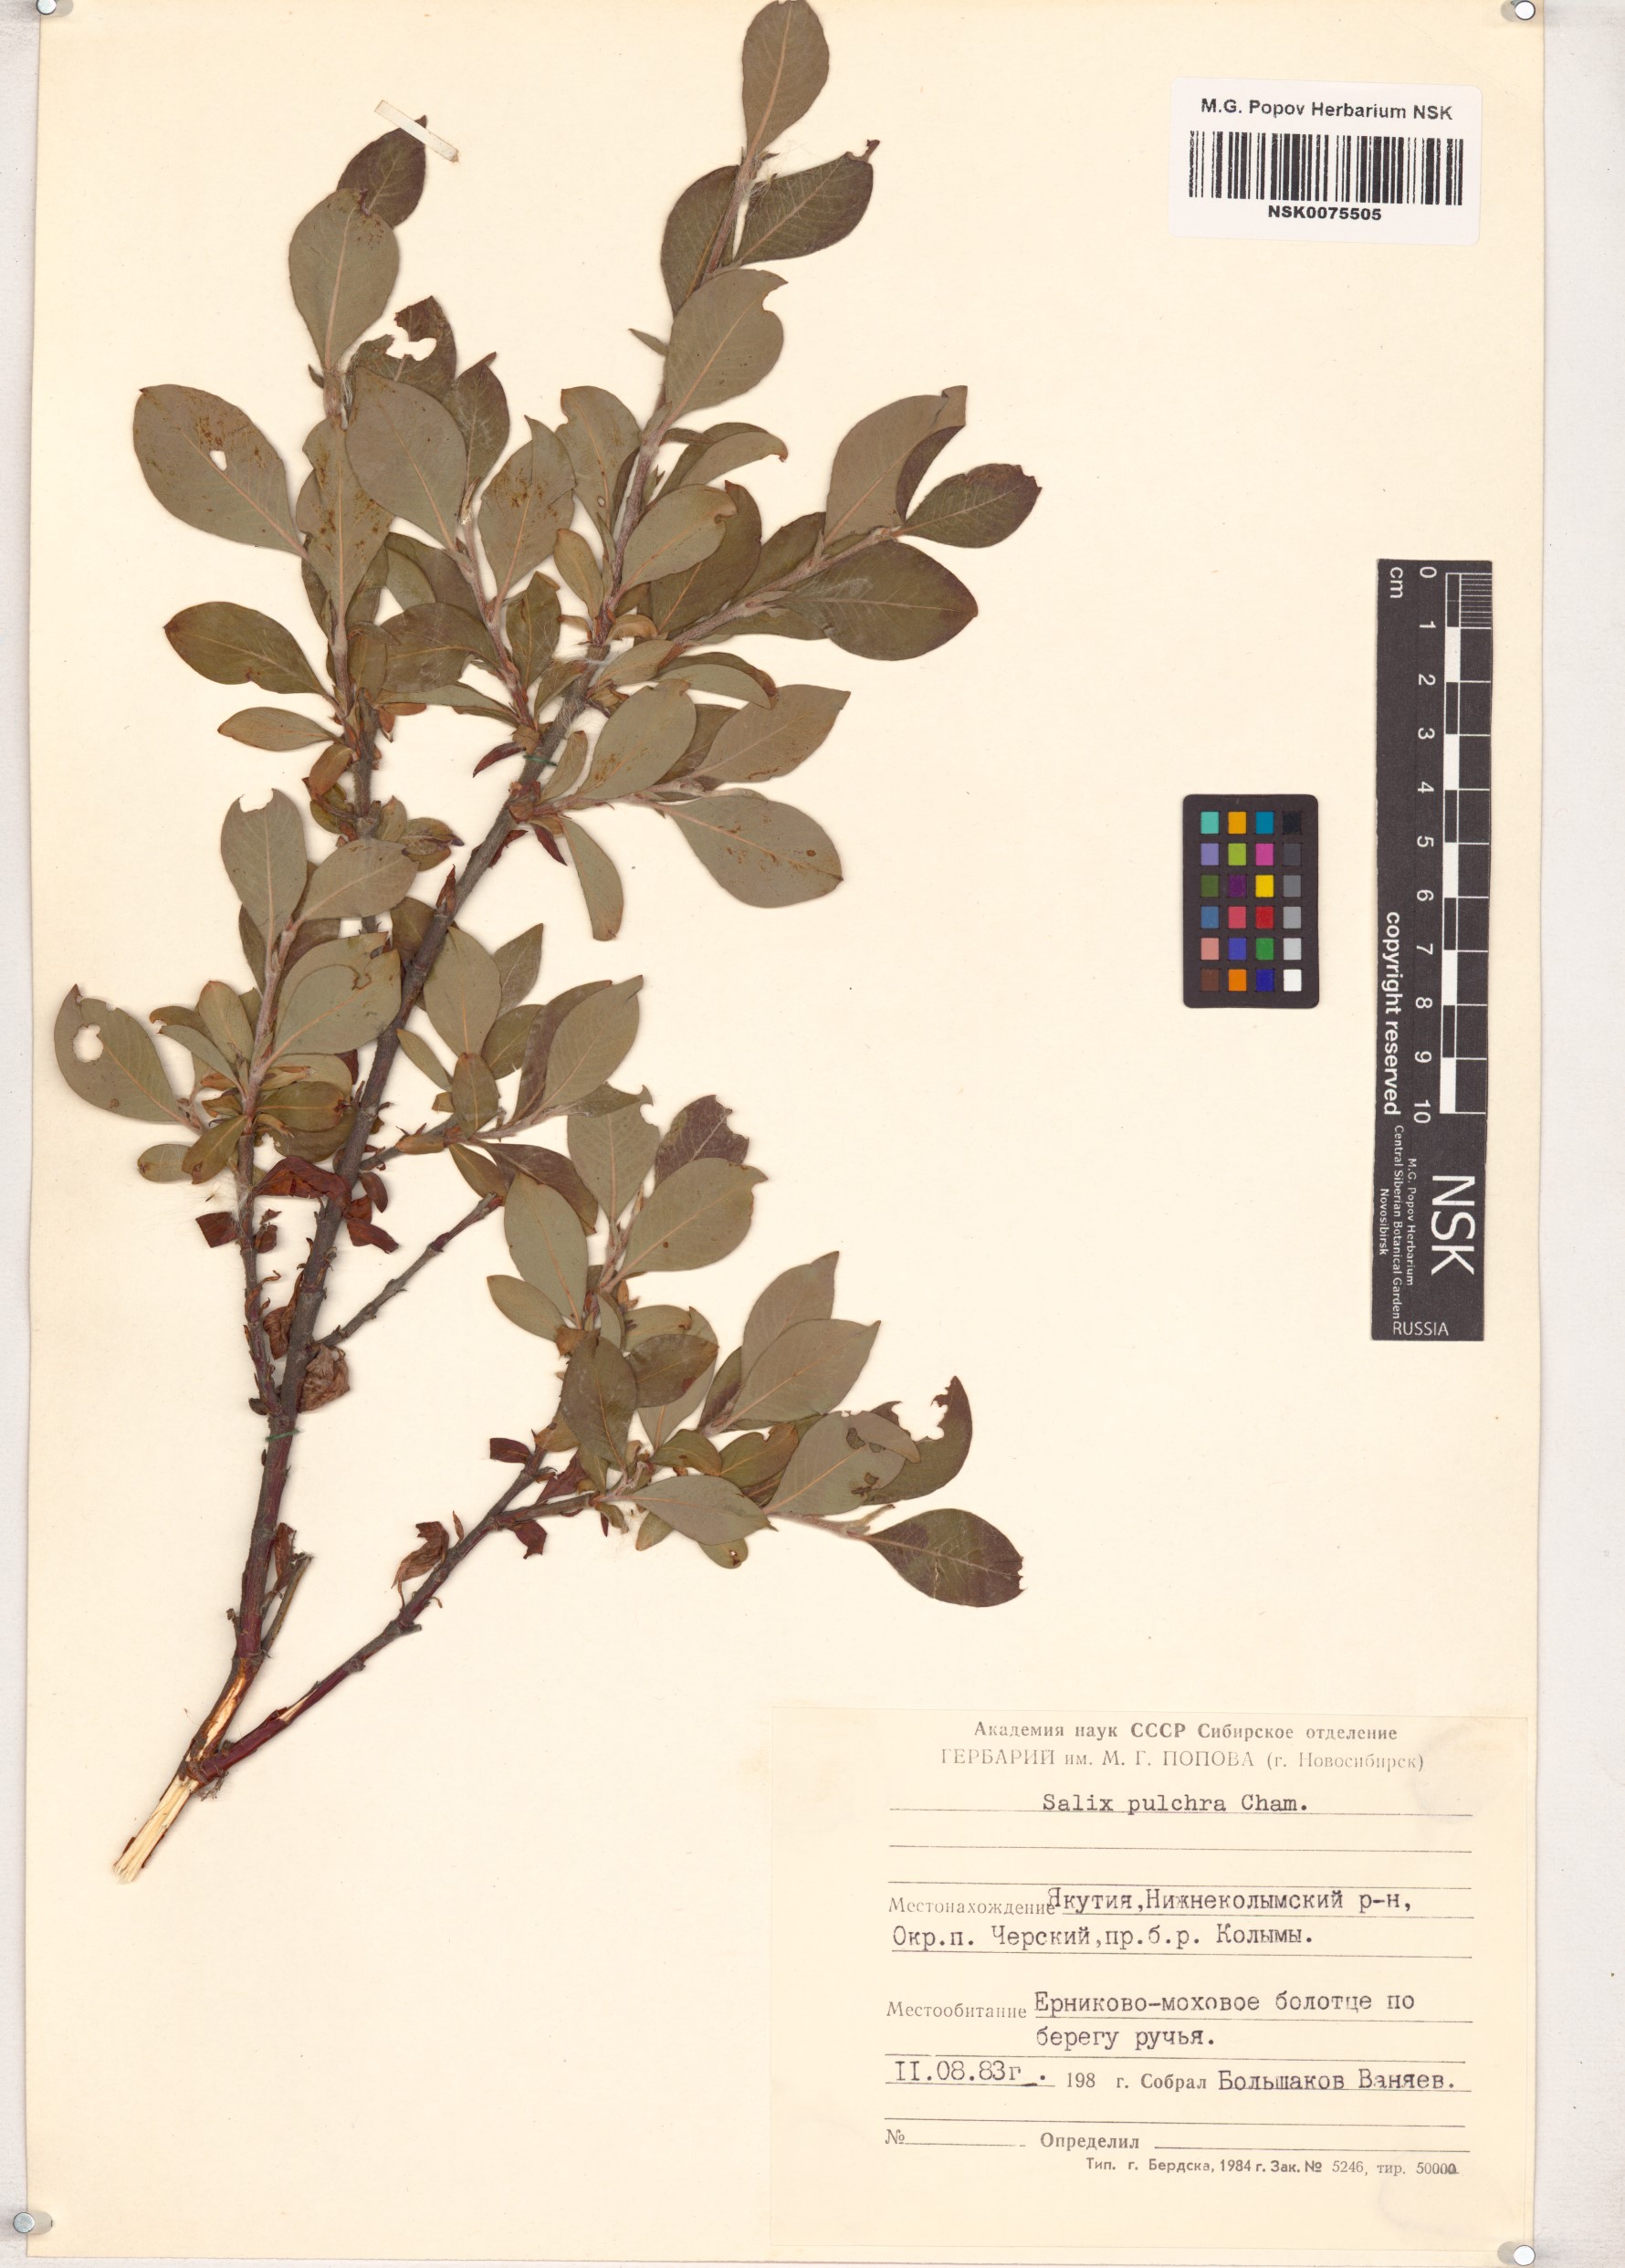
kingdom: Plantae
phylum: Tracheophyta
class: Magnoliopsida
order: Malpighiales
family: Salicaceae
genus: Salix
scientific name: Salix pulchra
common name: Diamond-leaved willow
